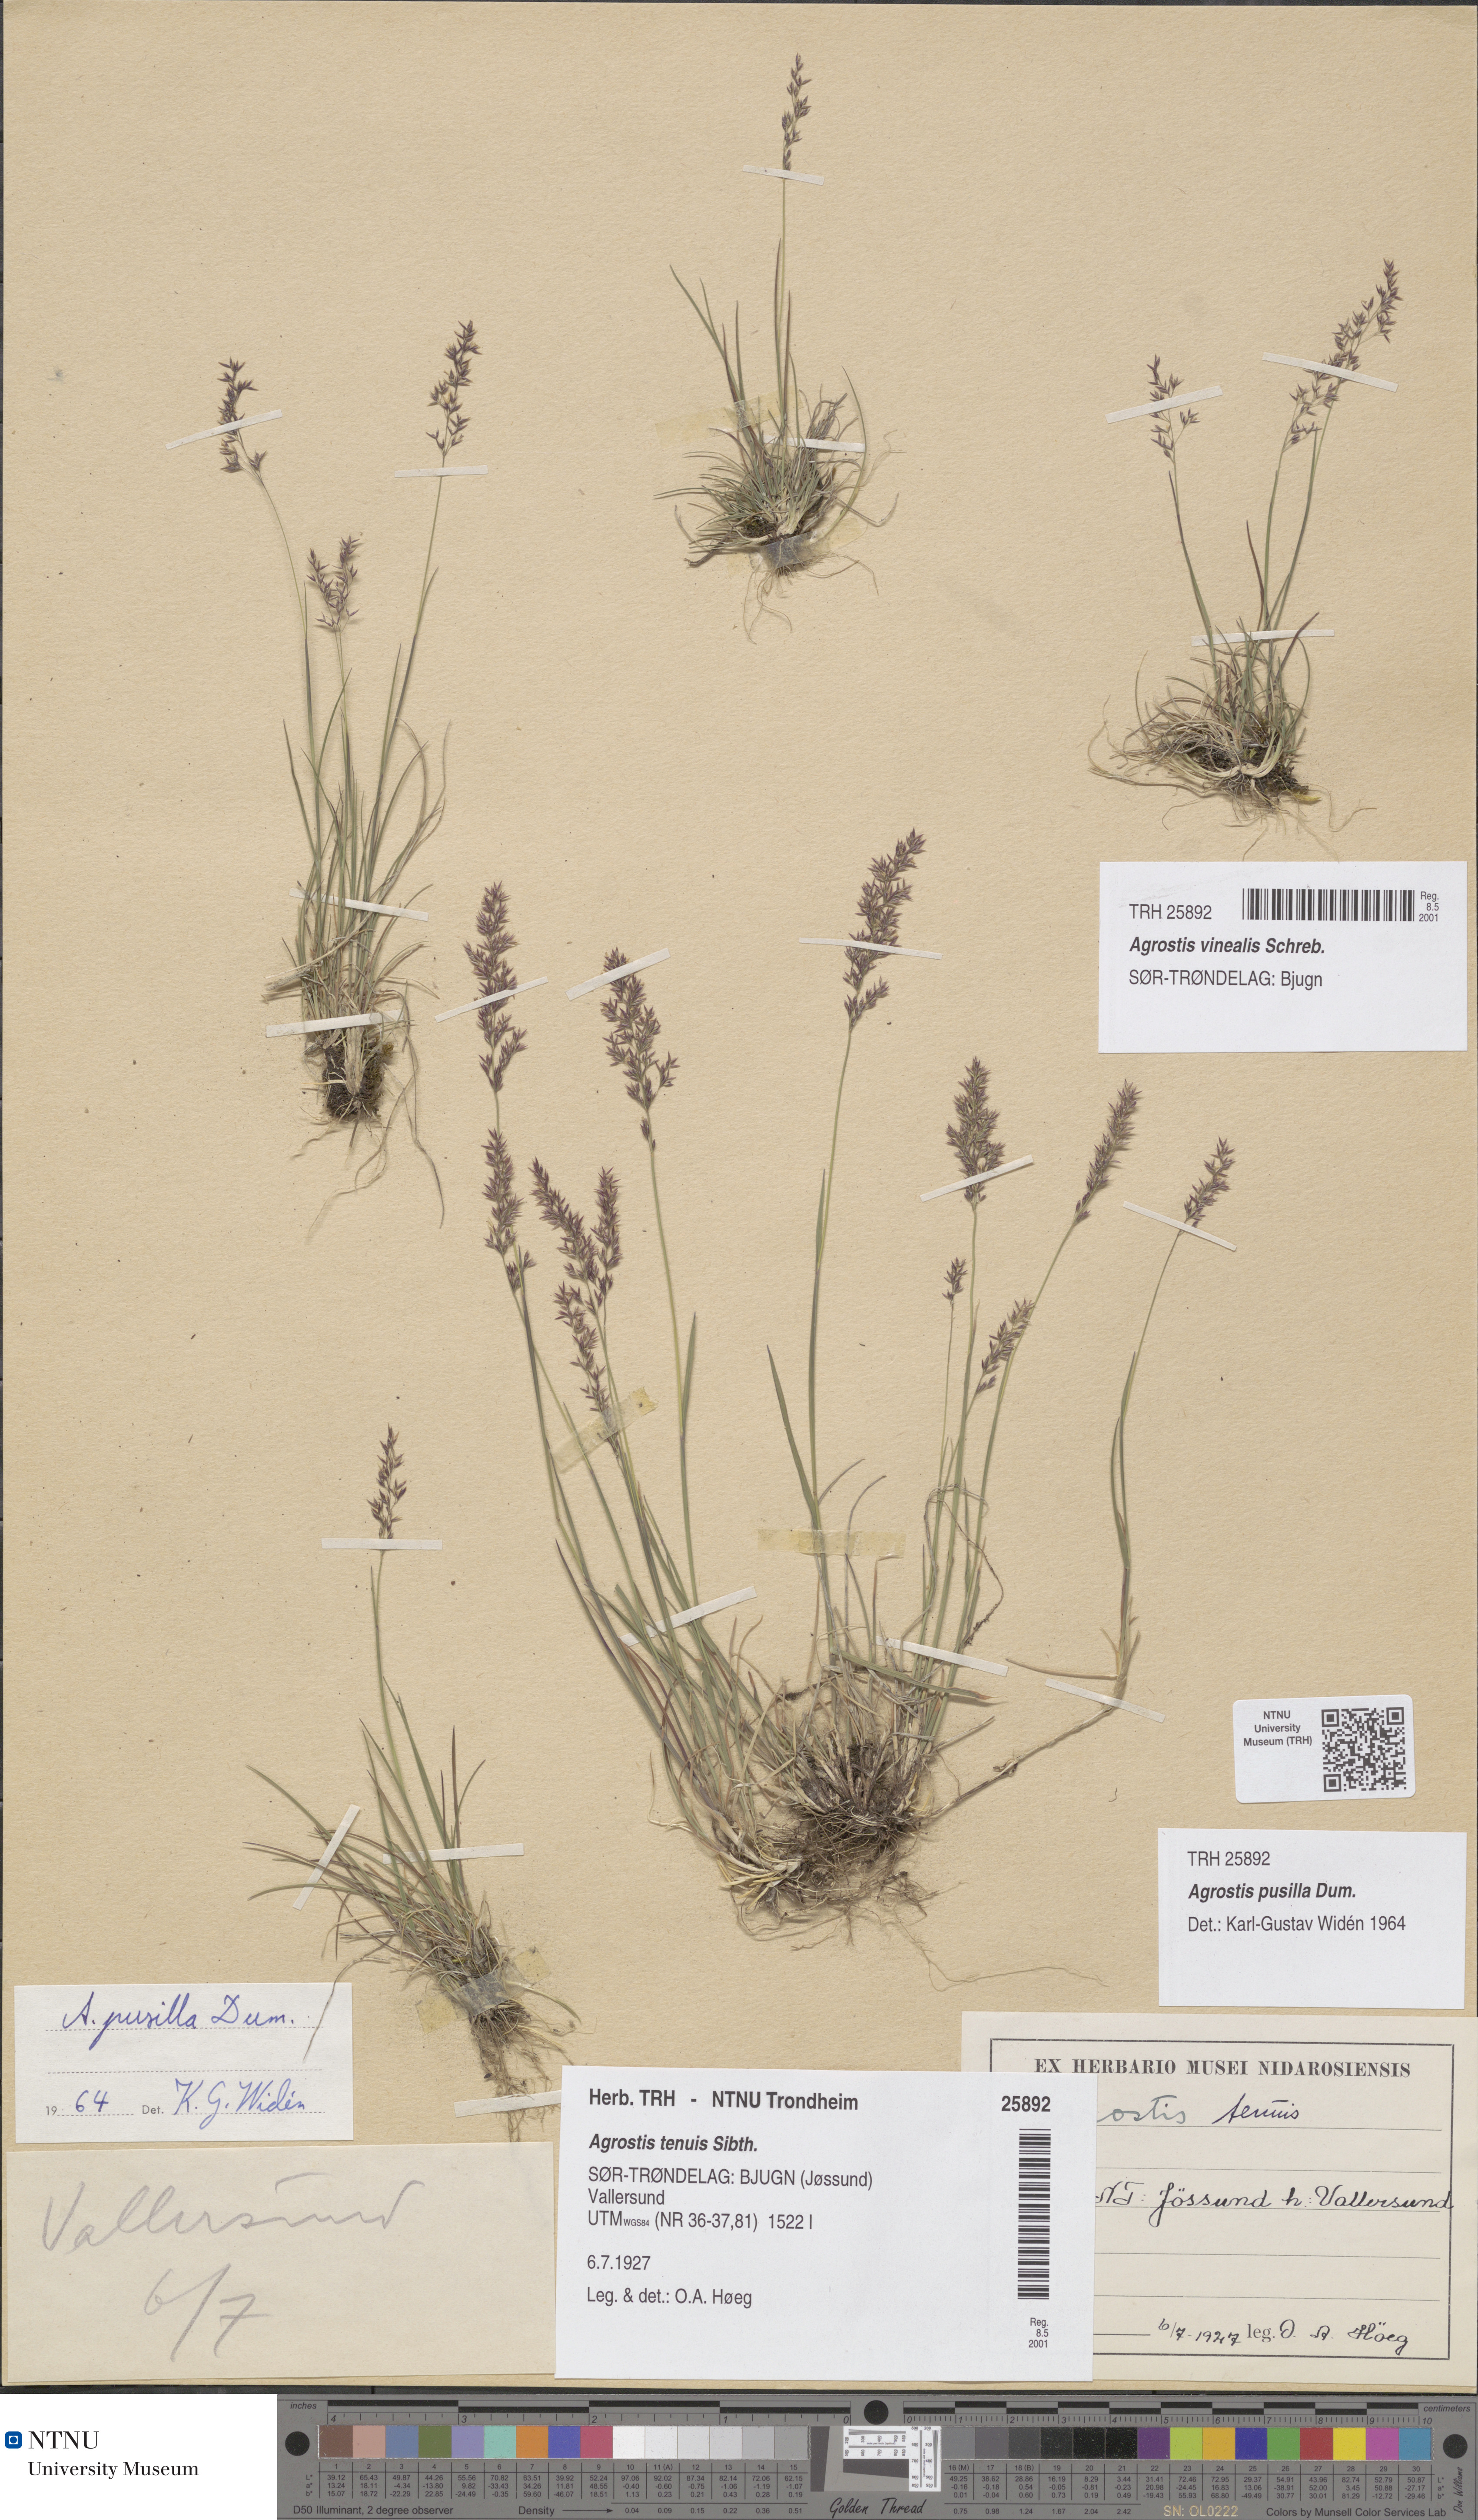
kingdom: Plantae
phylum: Tracheophyta
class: Liliopsida
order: Poales
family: Poaceae
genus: Agrostis
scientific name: Agrostis vinealis
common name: Brown bent
